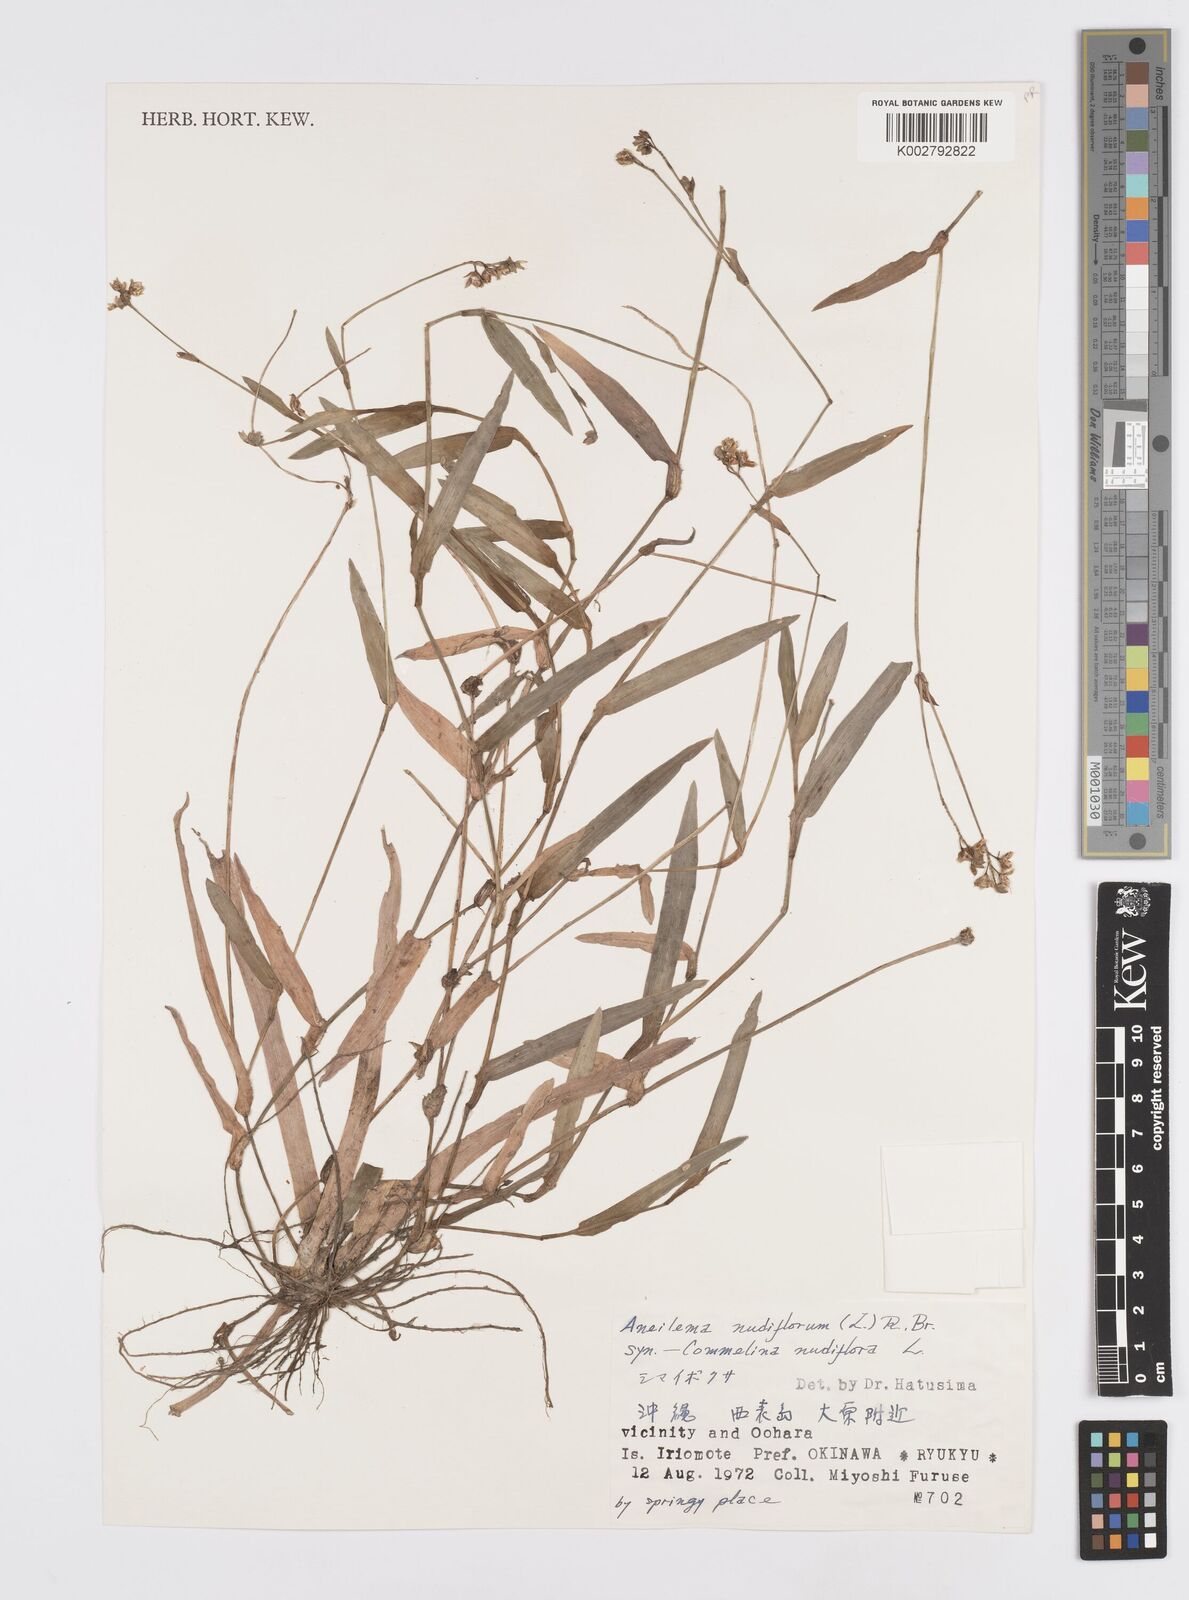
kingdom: Plantae
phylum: Tracheophyta
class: Liliopsida
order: Commelinales
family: Commelinaceae
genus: Murdannia
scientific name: Murdannia nudiflora
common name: Nakedstem dewflower
